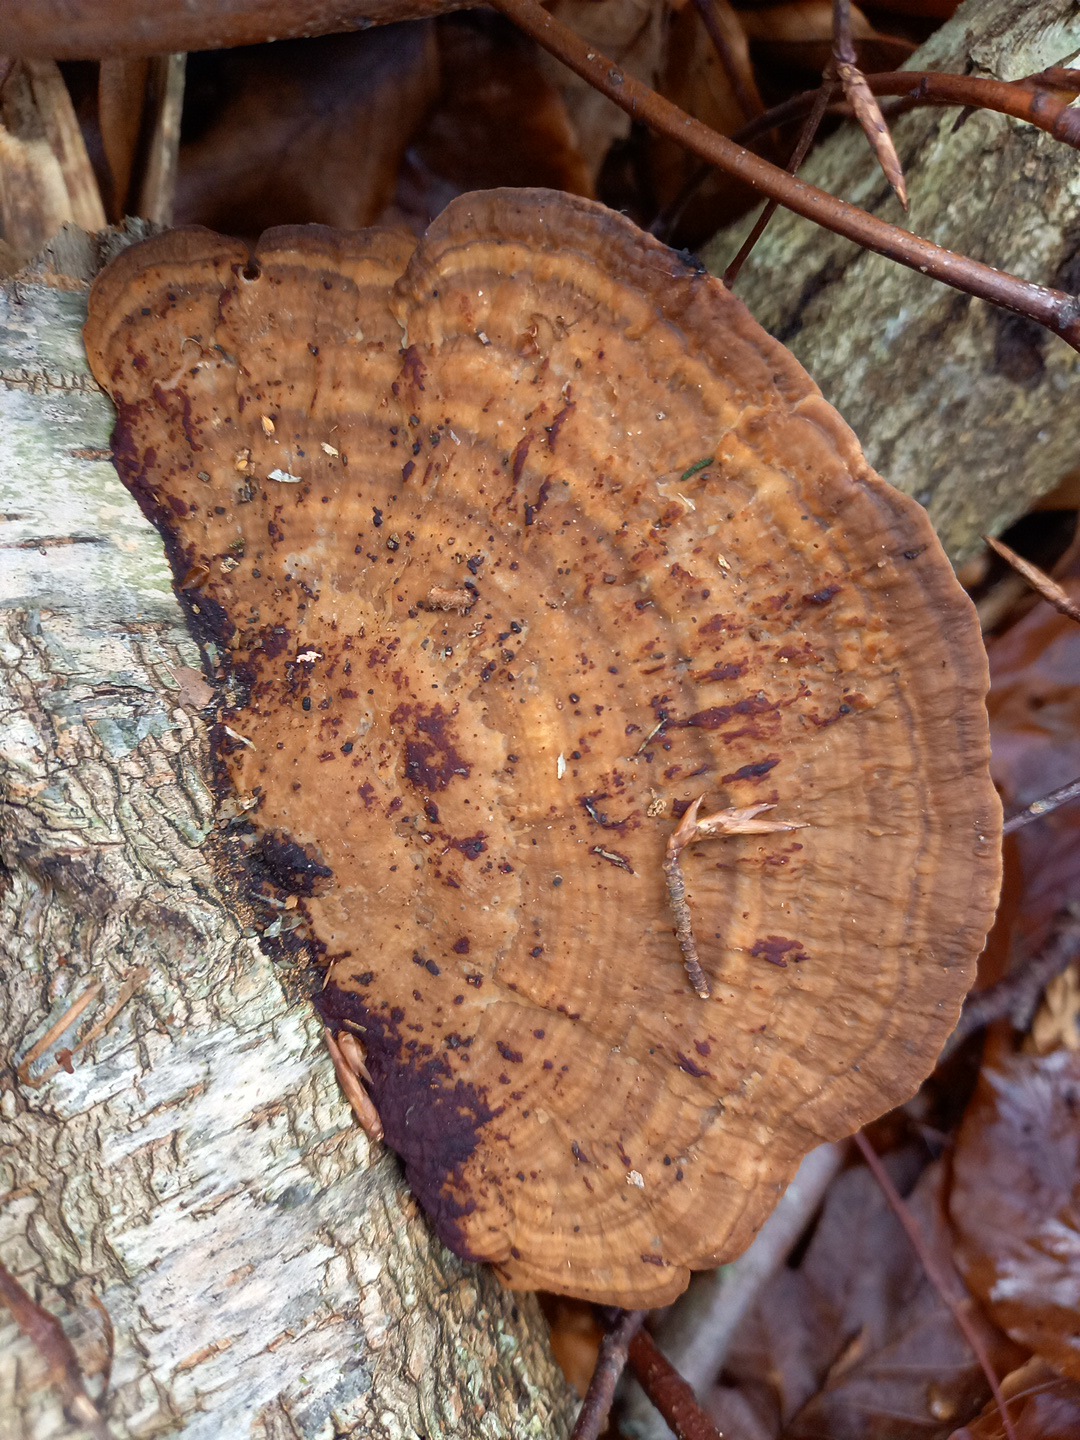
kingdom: Fungi
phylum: Basidiomycota
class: Agaricomycetes
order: Polyporales
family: Polyporaceae
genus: Daedaleopsis
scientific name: Daedaleopsis confragosa
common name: rødmende læderporesvamp
